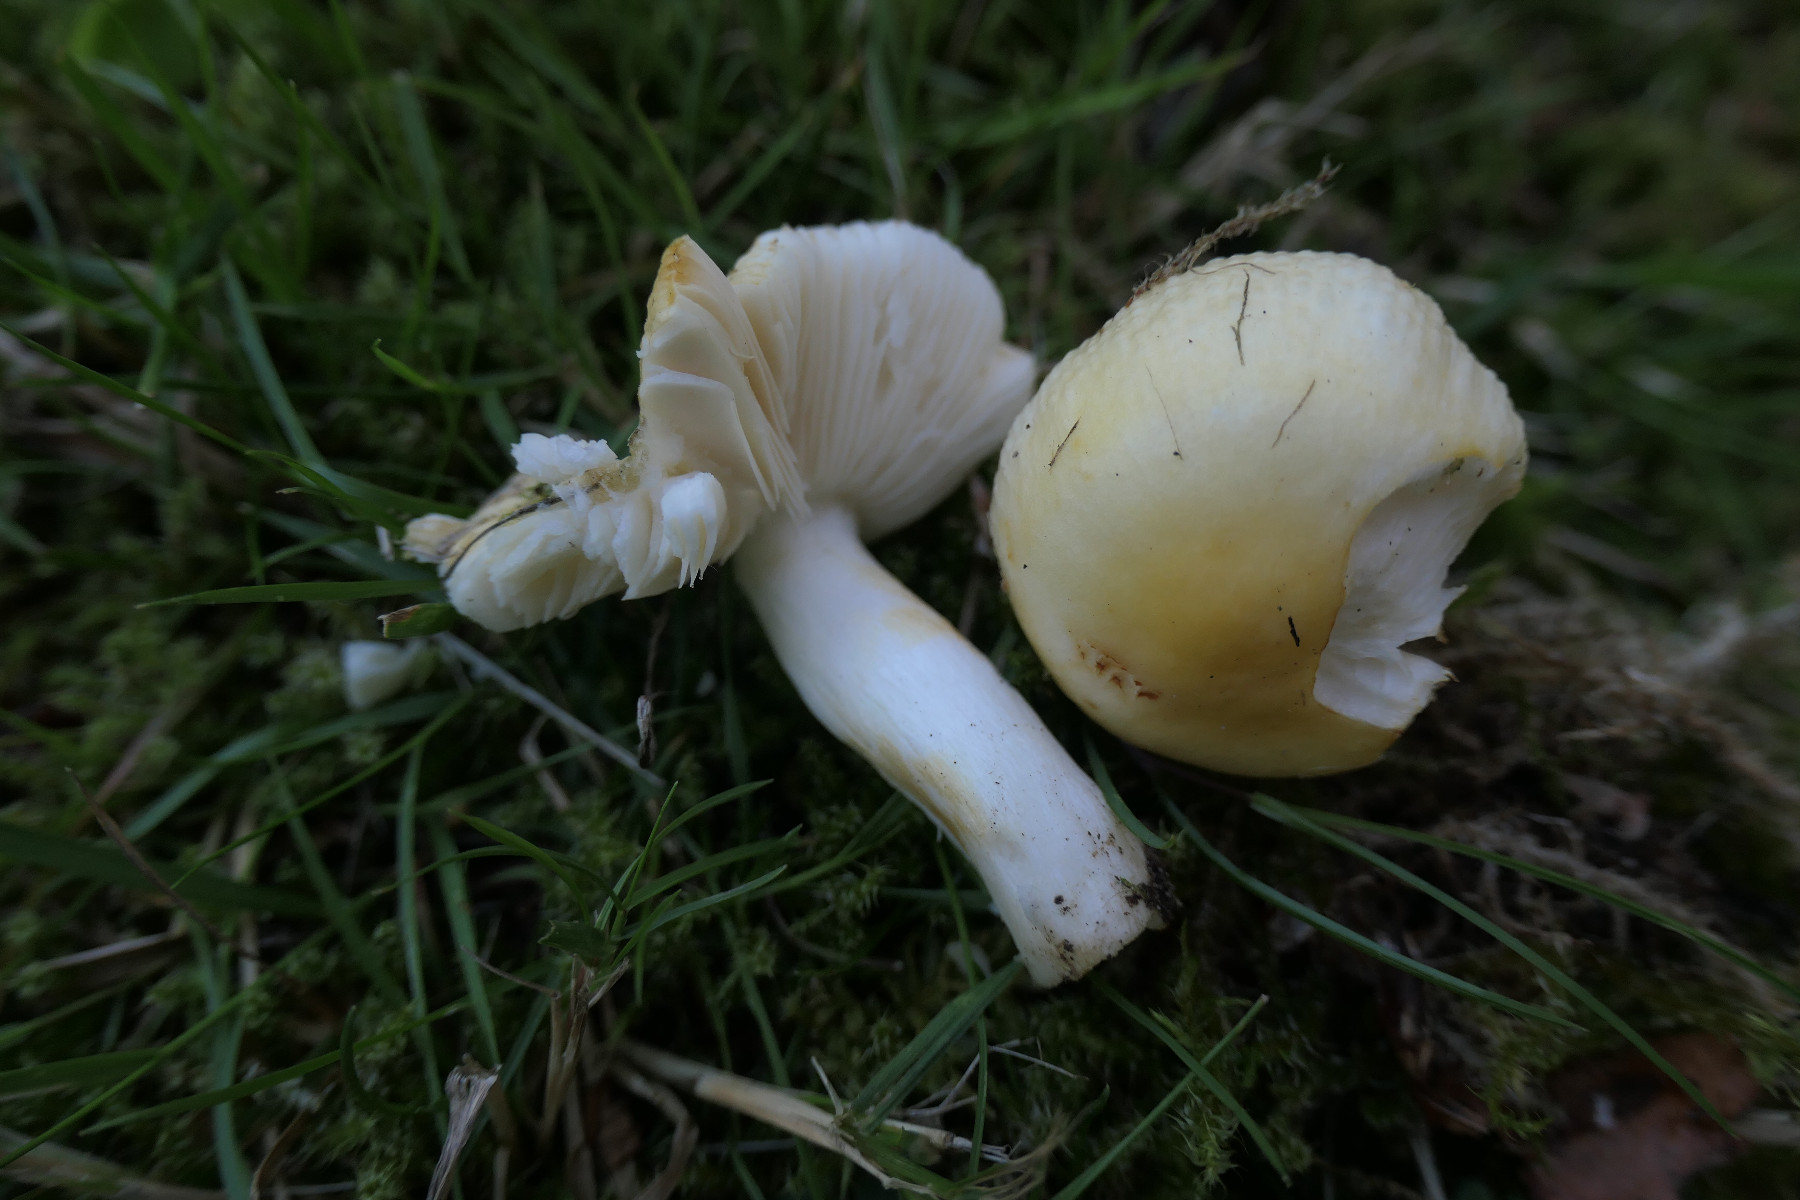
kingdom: Fungi
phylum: Basidiomycota
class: Agaricomycetes
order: Russulales
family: Russulaceae
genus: Russula
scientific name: Russula solaris
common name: sol-skørhat
